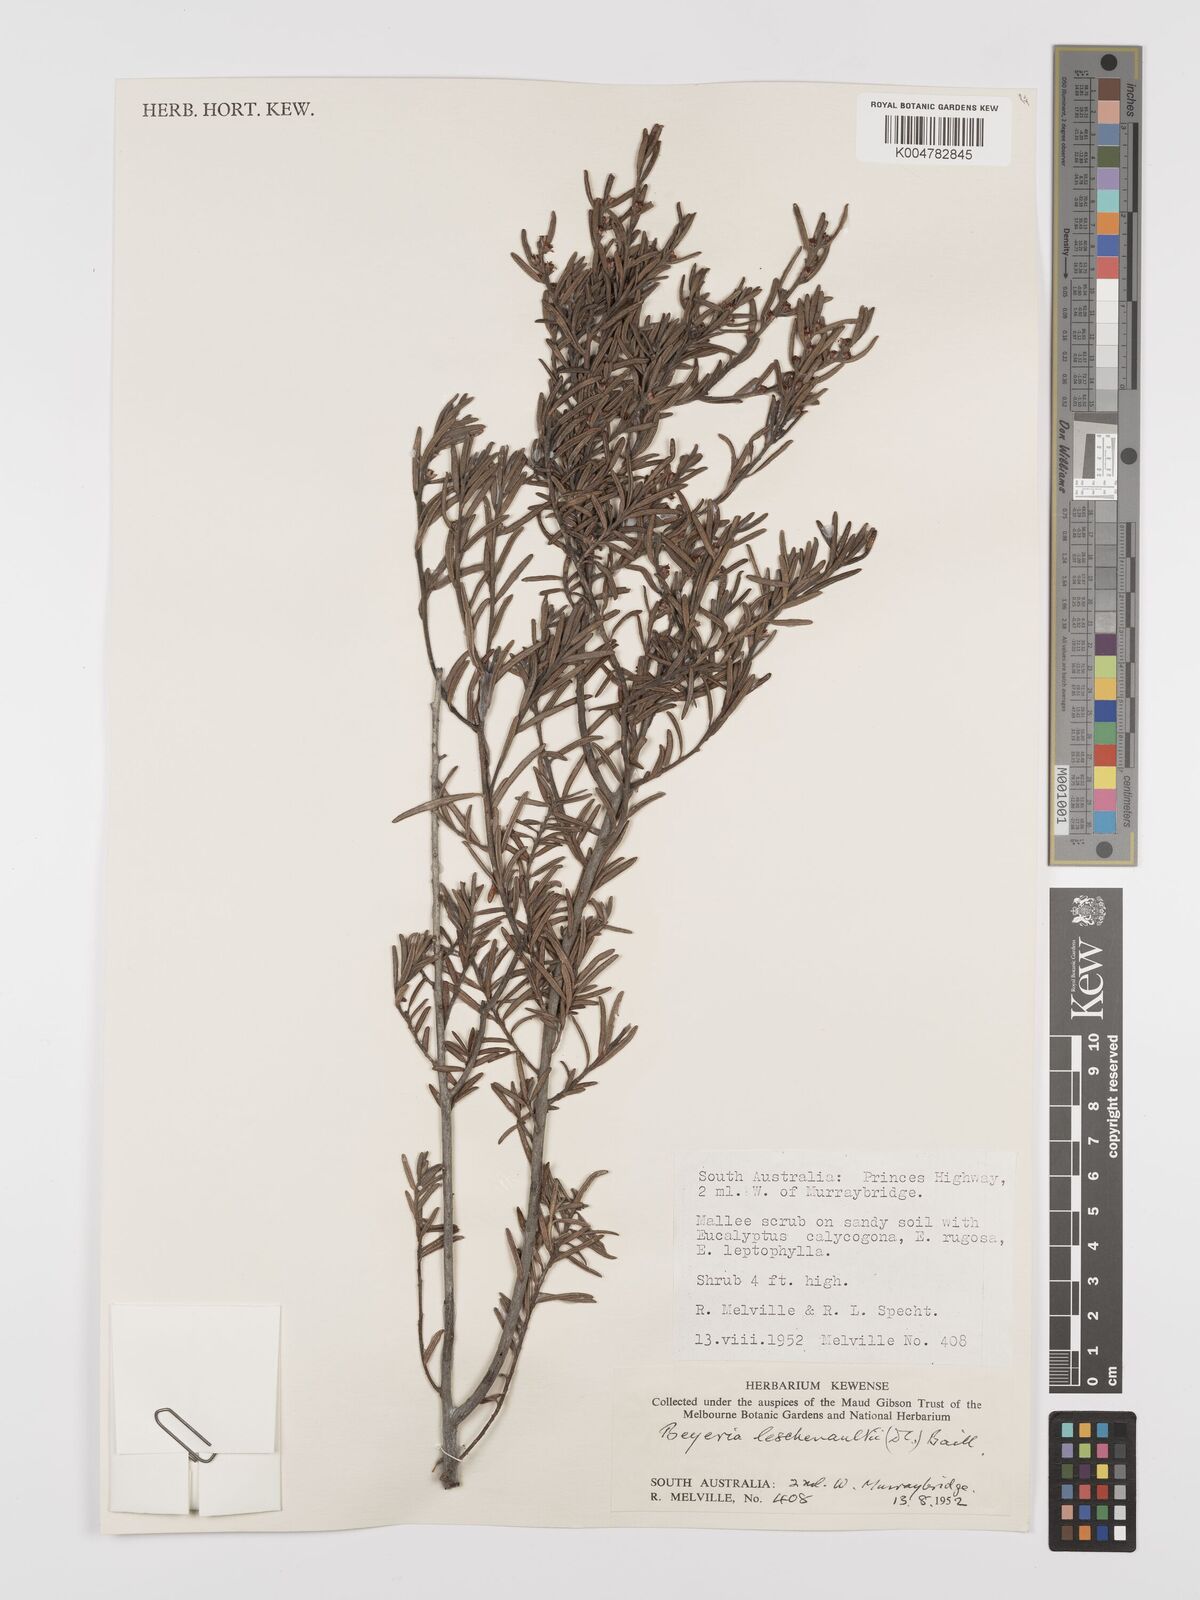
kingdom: Plantae
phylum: Tracheophyta
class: Magnoliopsida
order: Malpighiales
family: Euphorbiaceae
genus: Beyeria
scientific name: Beyeria lechenaultii
